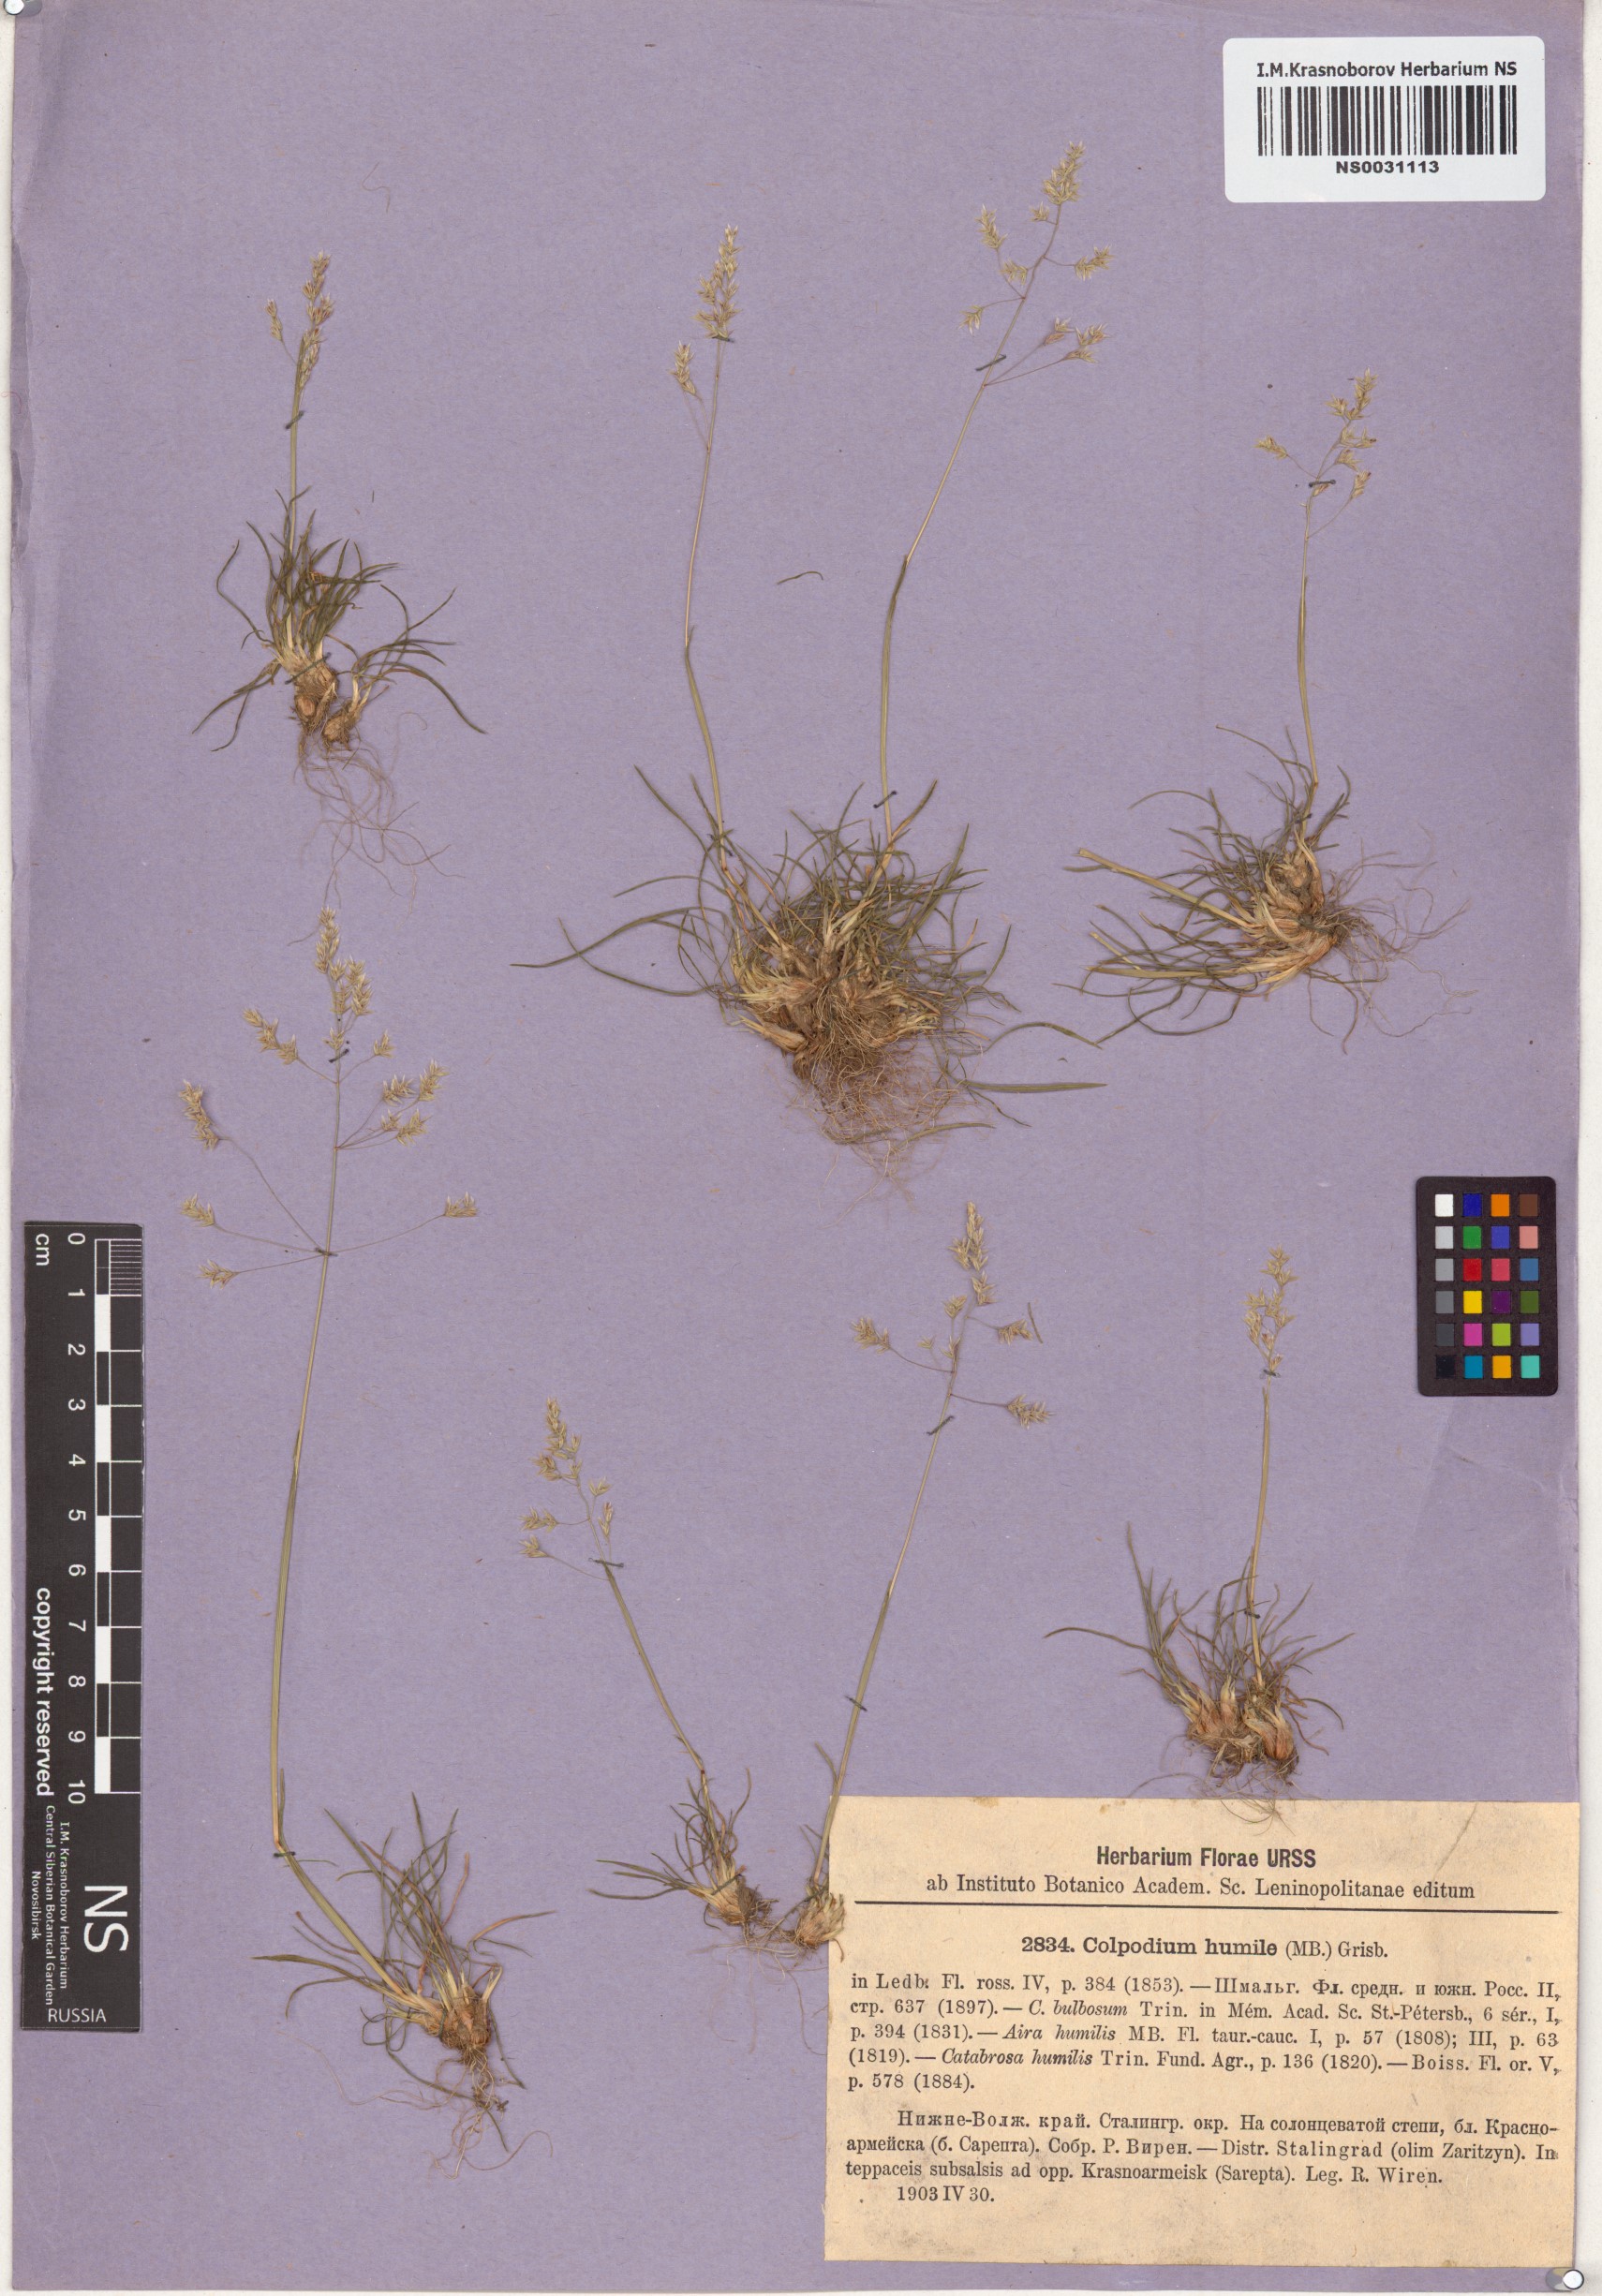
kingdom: Plantae
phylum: Tracheophyta
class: Liliopsida
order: Poales
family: Poaceae
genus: Catabrosella
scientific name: Catabrosella humilis
